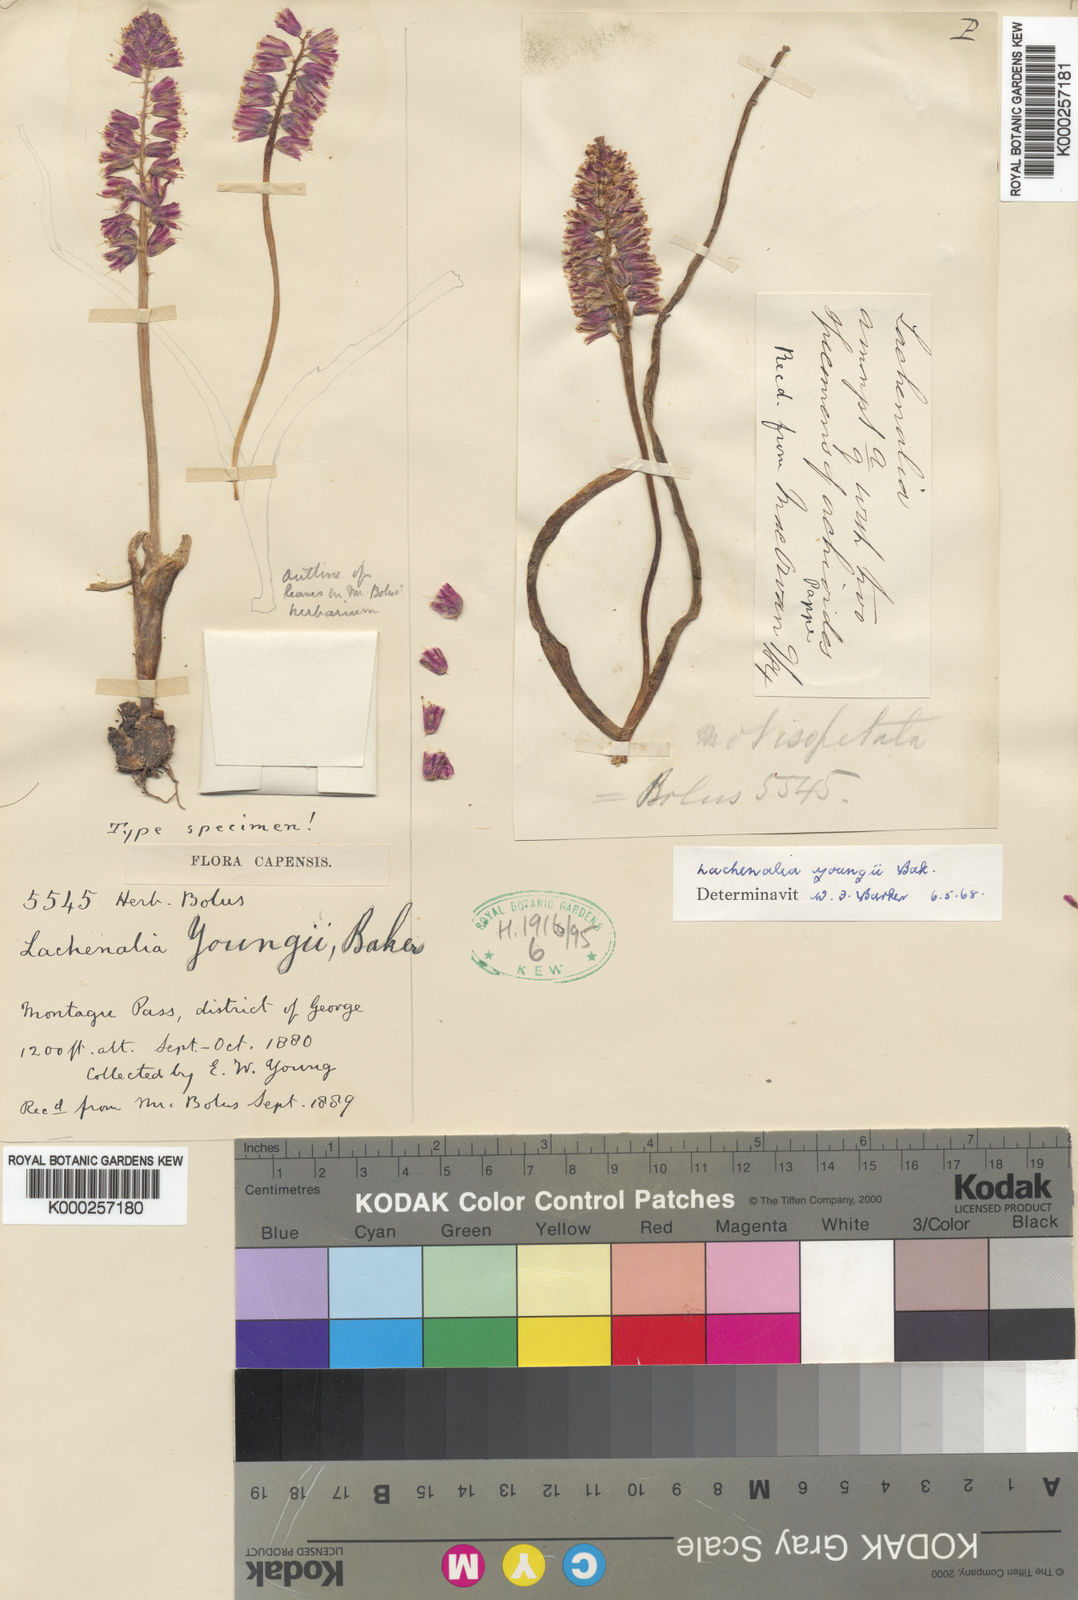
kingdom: Plantae
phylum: Tracheophyta
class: Liliopsida
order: Asparagales
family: Asparagaceae
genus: Lachenalia
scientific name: Lachenalia youngii
